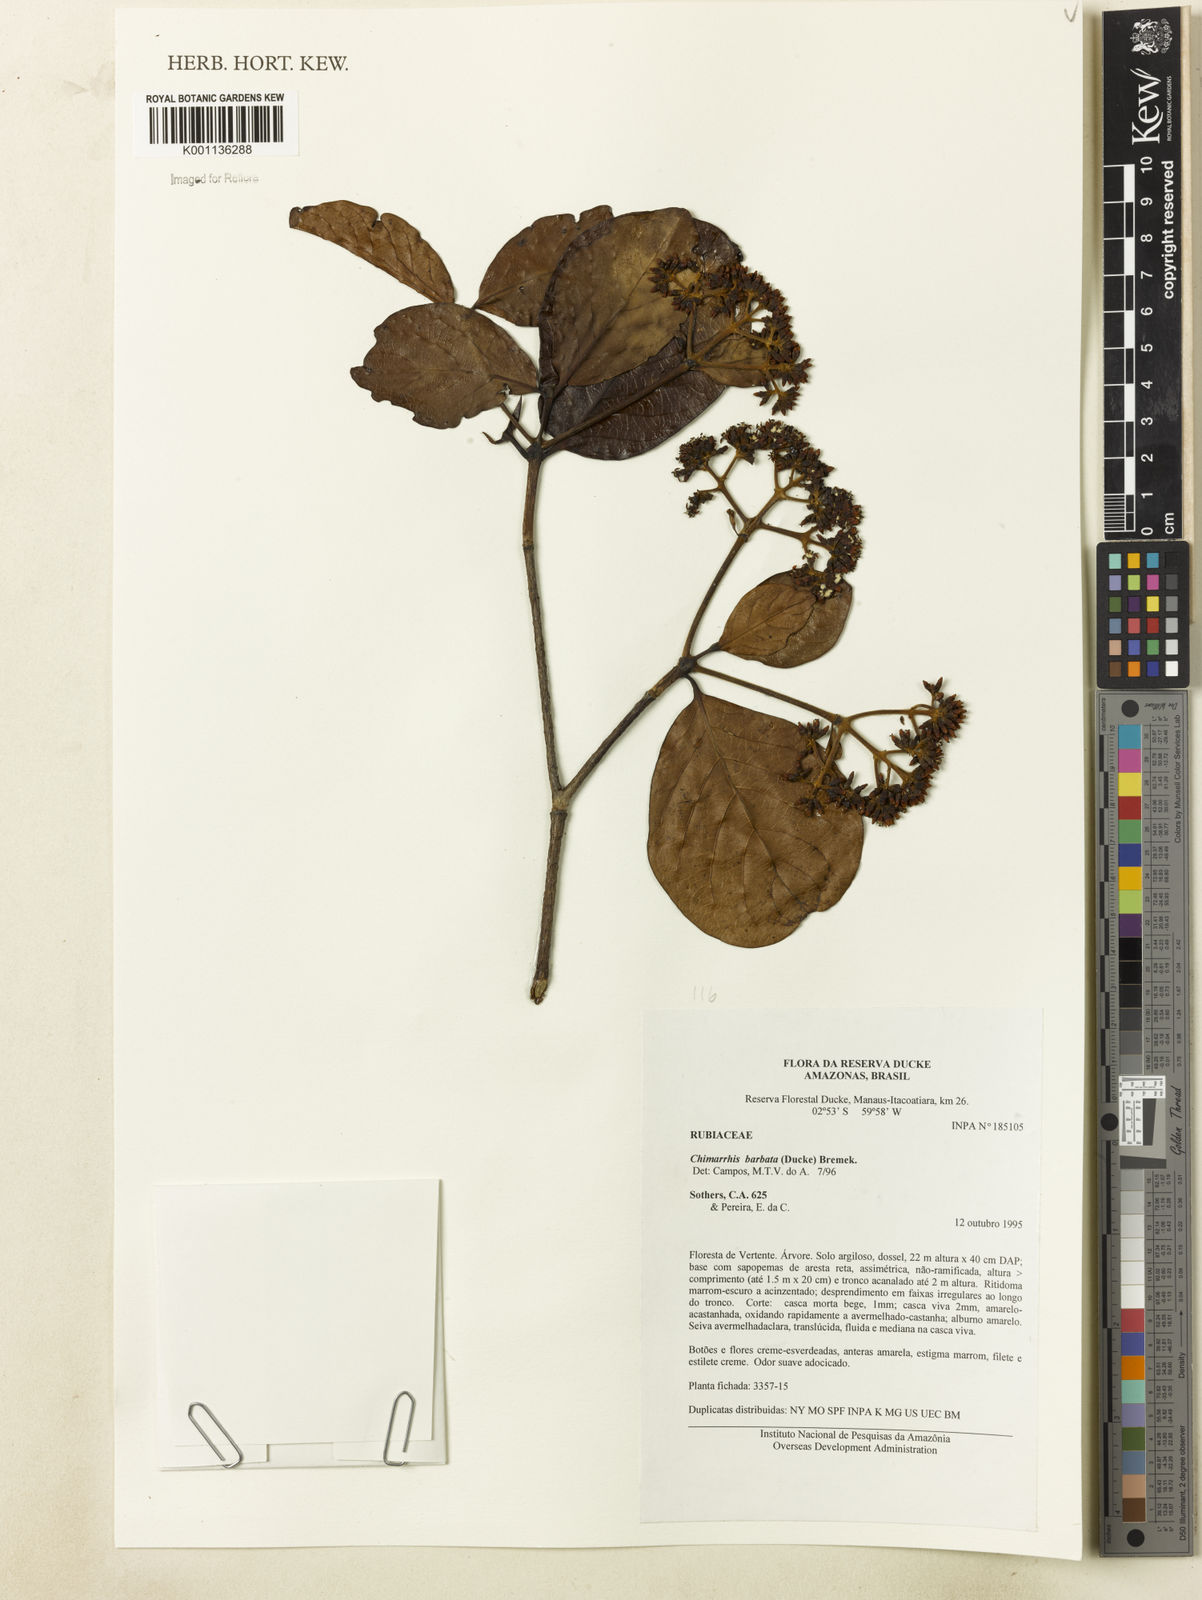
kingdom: Plantae
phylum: Tracheophyta
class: Magnoliopsida
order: Gentianales
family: Rubiaceae
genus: Chimarrhis
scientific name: Chimarrhis barbata
